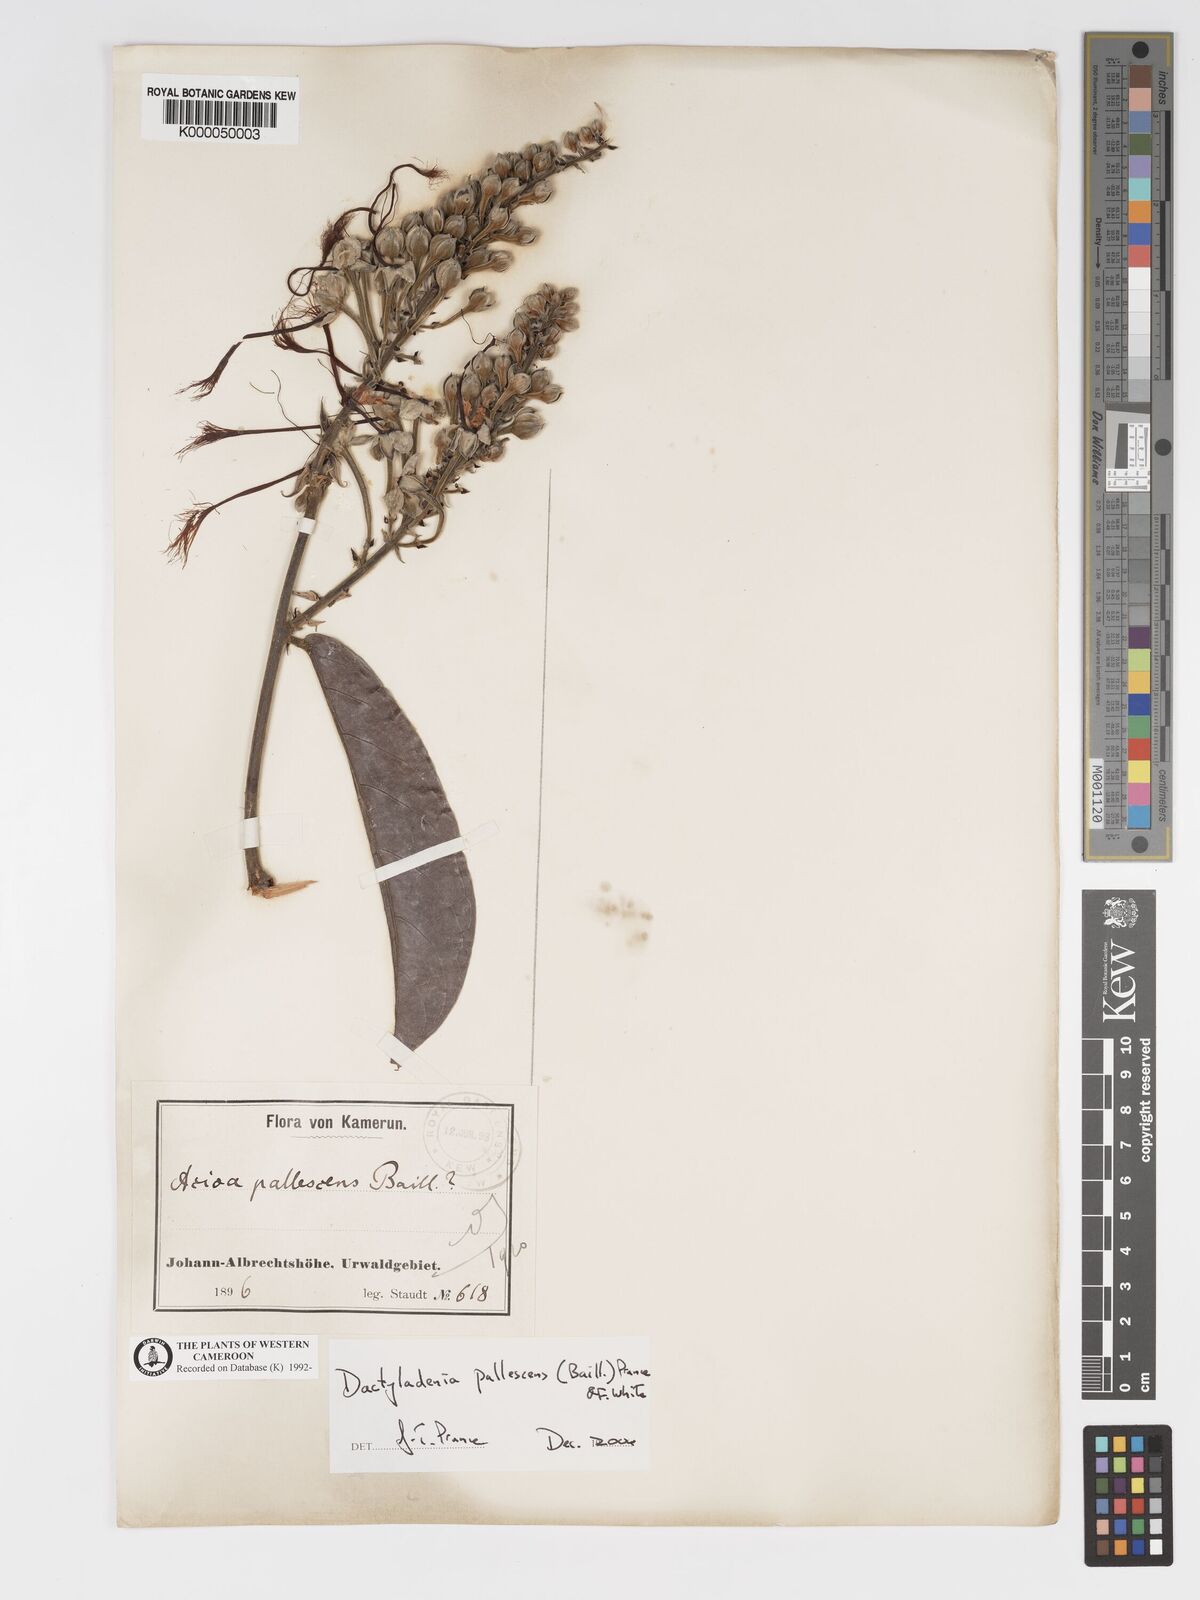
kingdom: Plantae
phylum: Tracheophyta
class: Magnoliopsida
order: Malpighiales
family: Chrysobalanaceae
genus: Dactyladenia
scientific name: Dactyladenia pallescens
